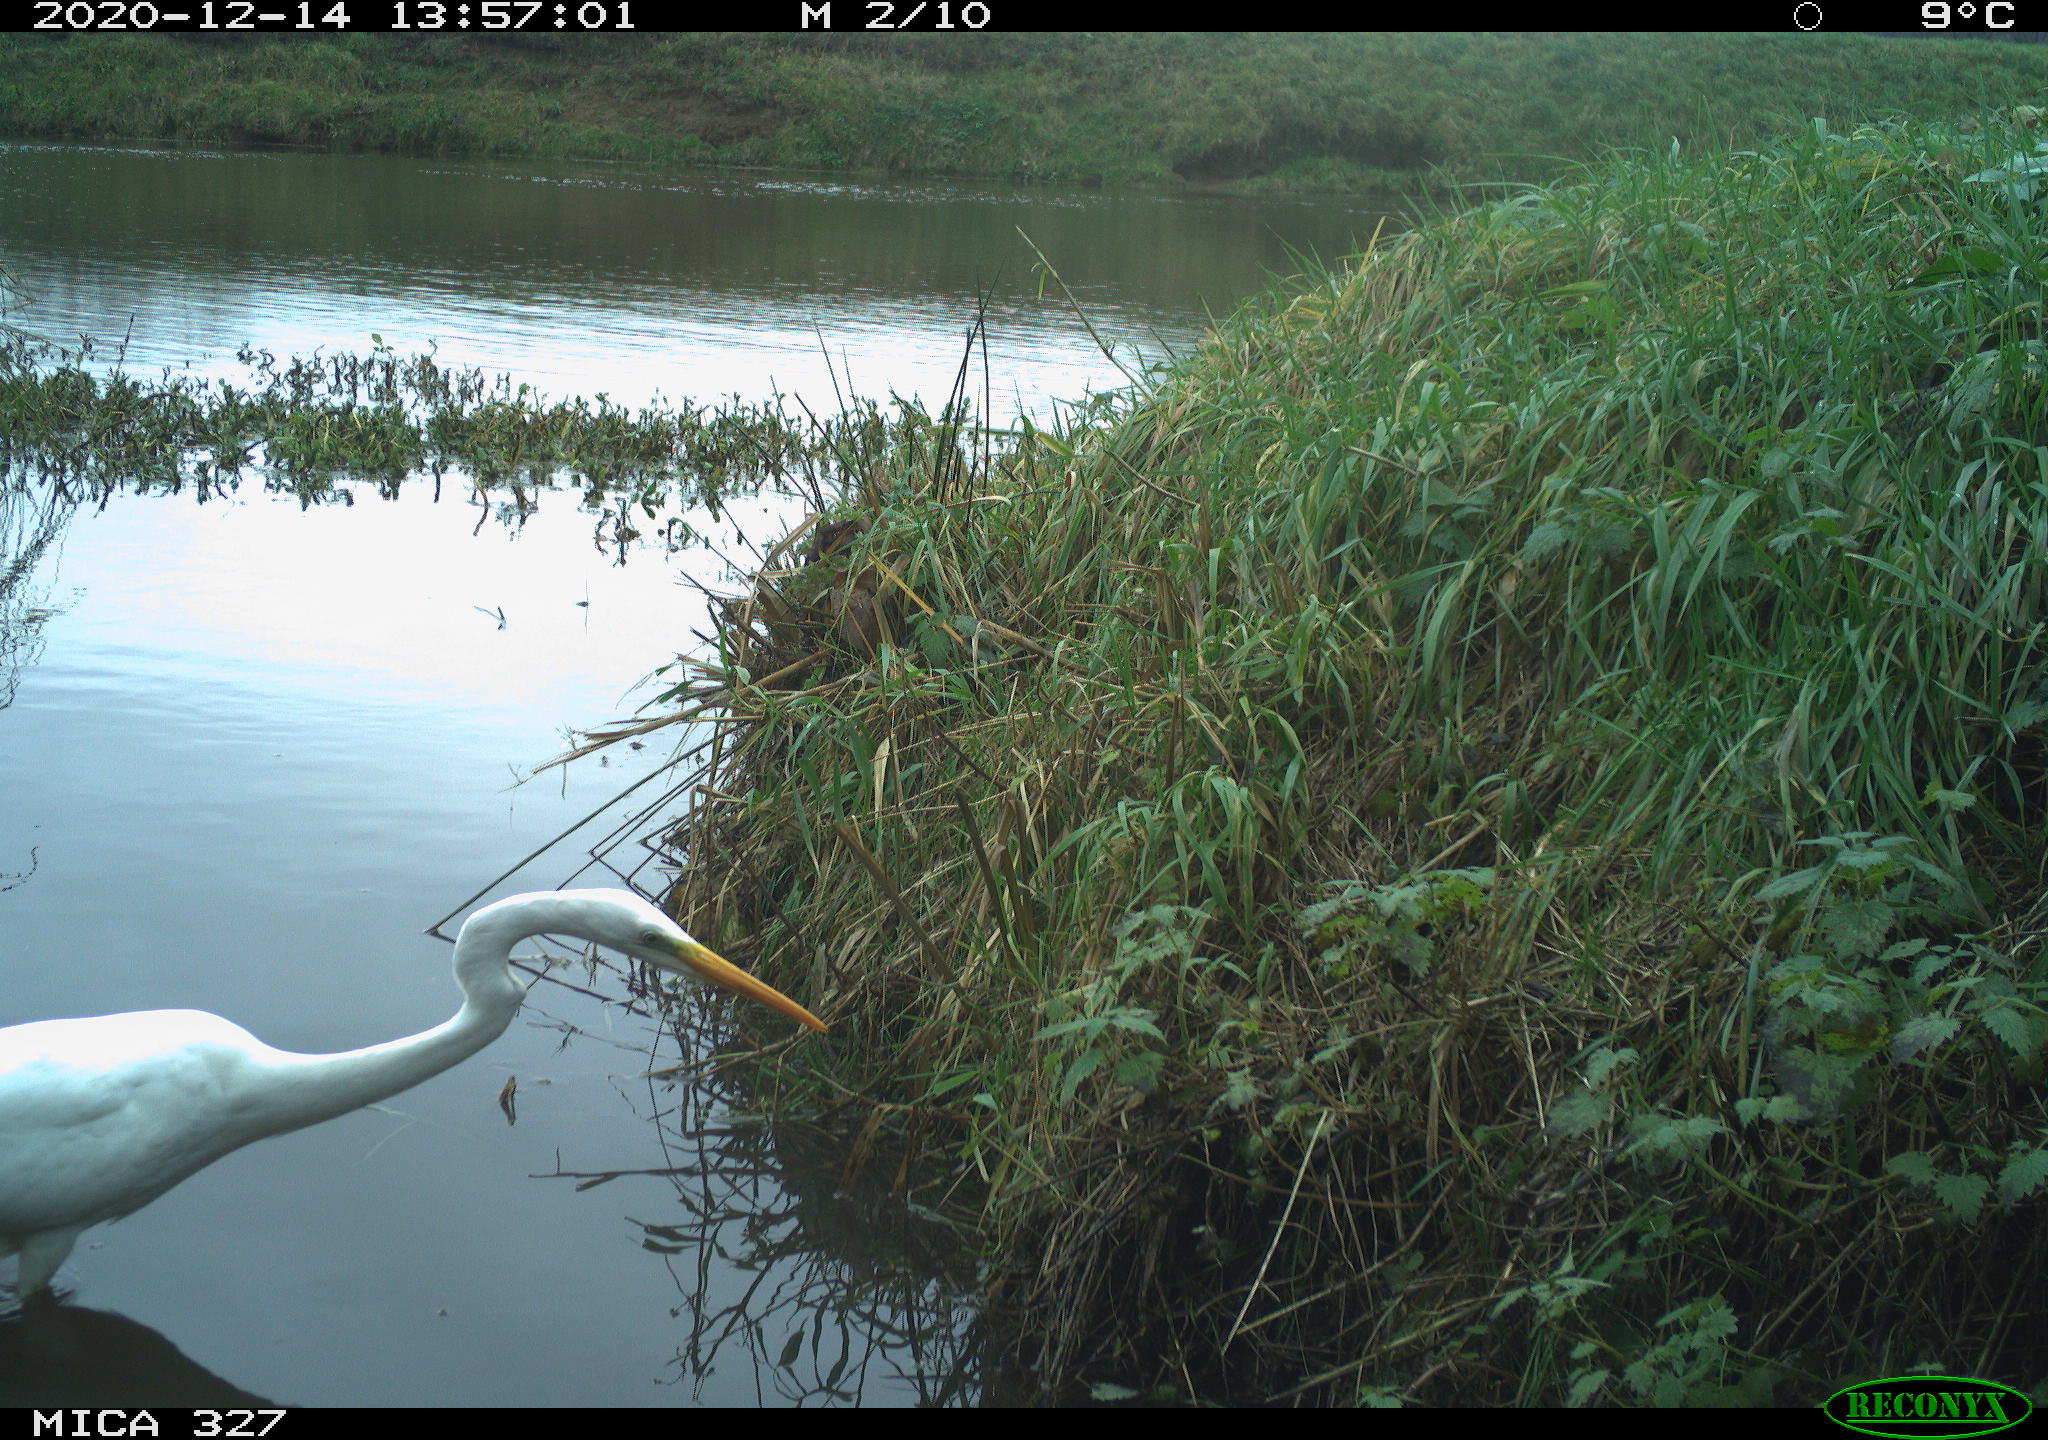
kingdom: Animalia
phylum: Chordata
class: Aves
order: Pelecaniformes
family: Ardeidae
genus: Ardea
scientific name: Ardea alba
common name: Great egret
